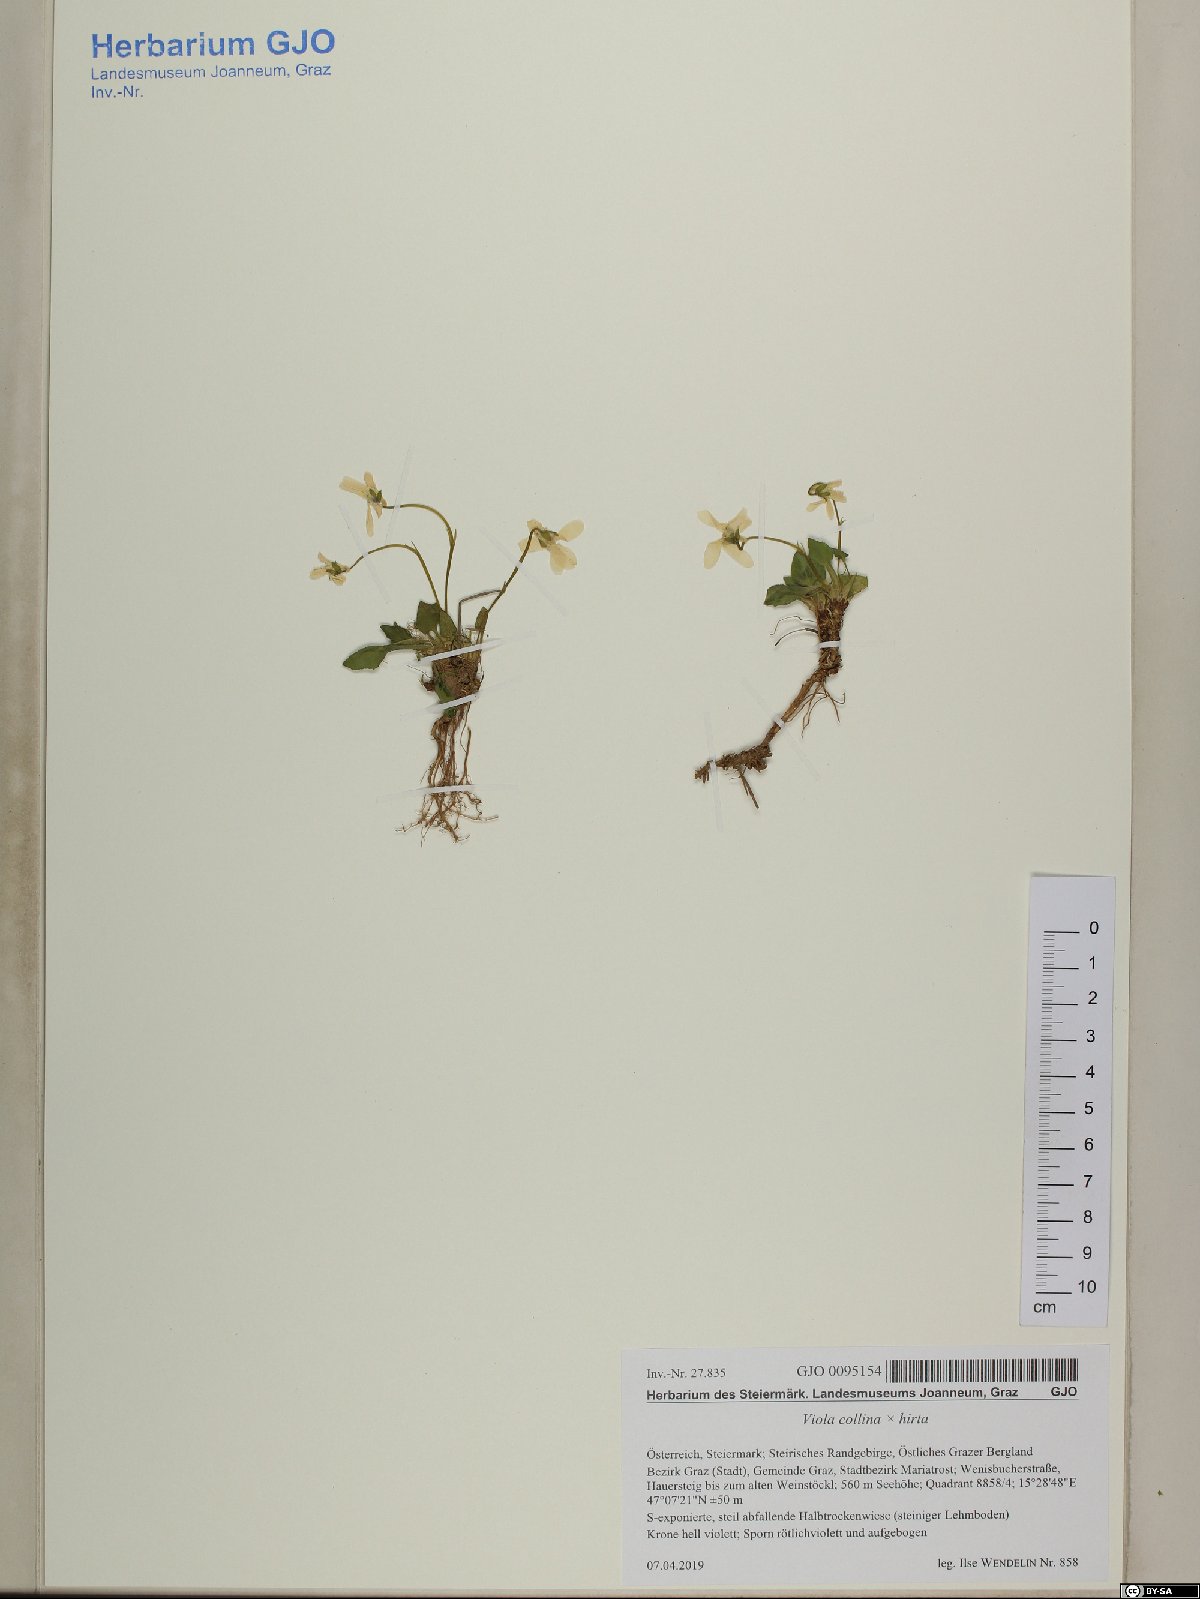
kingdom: Plantae
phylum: Tracheophyta
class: Magnoliopsida
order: Malpighiales
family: Violaceae
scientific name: Violaceae
